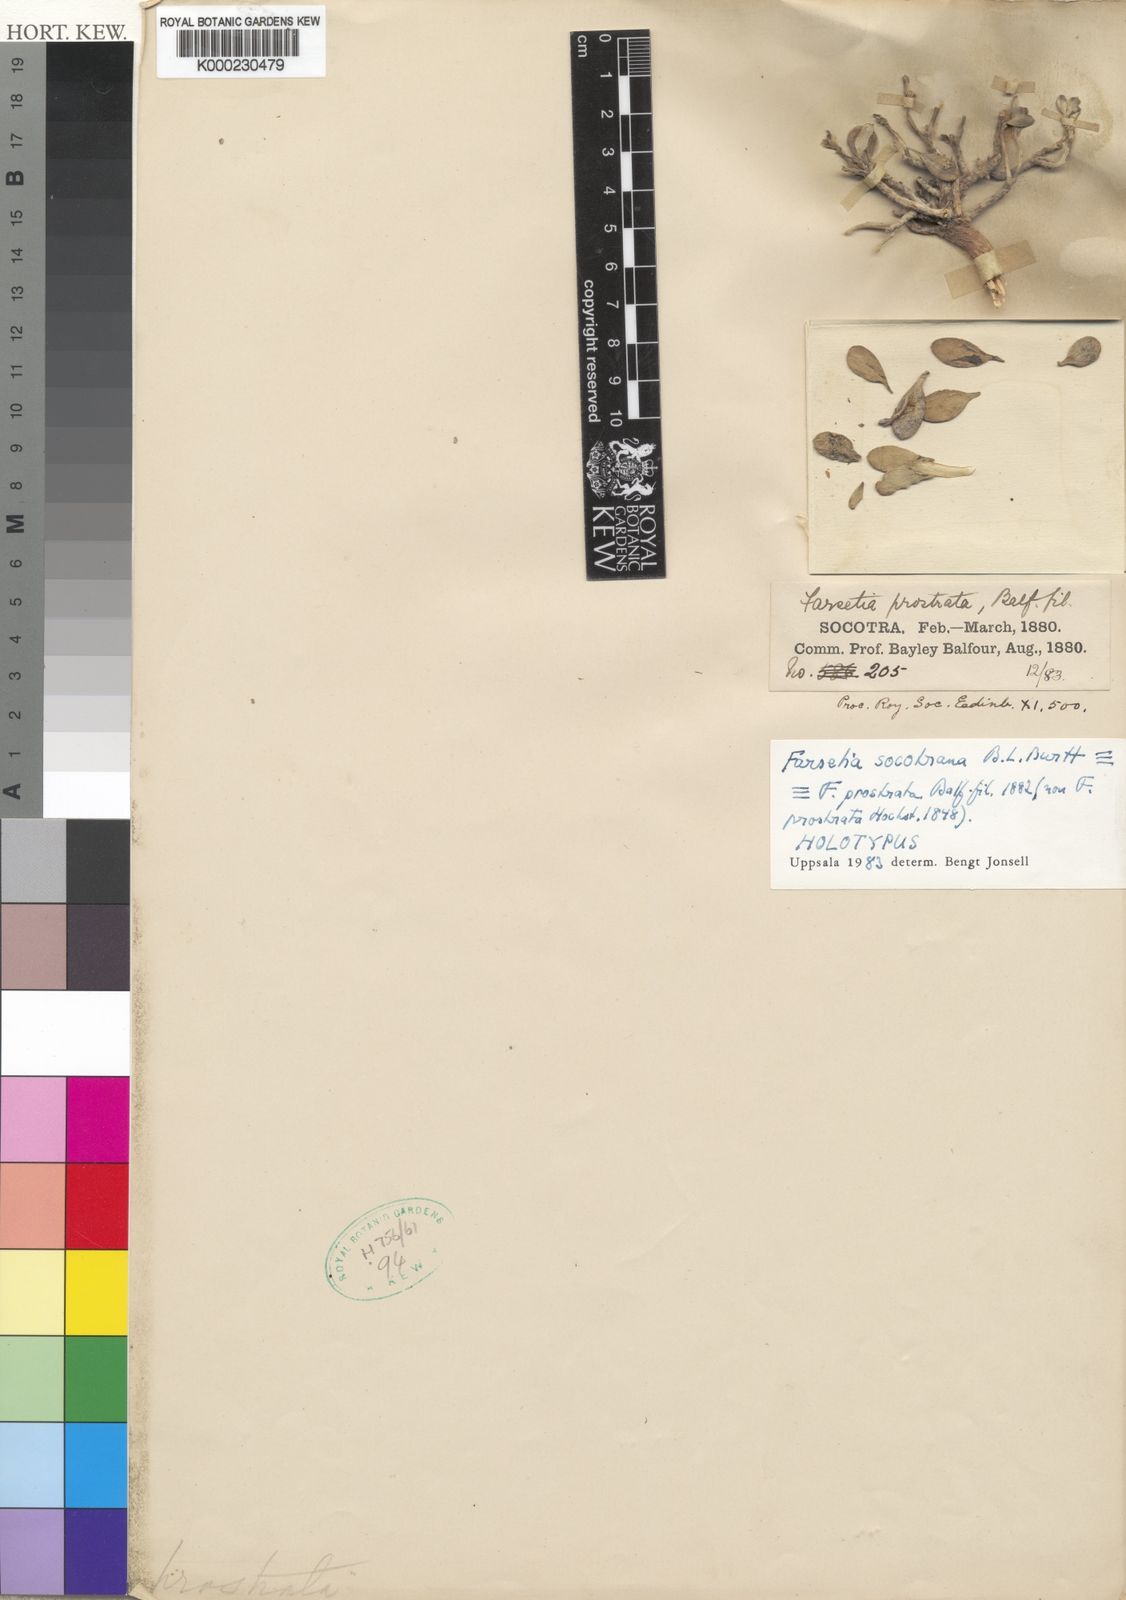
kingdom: Plantae
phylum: Tracheophyta
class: Magnoliopsida
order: Brassicales
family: Brassicaceae
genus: Farsetia
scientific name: Farsetia socotrana
